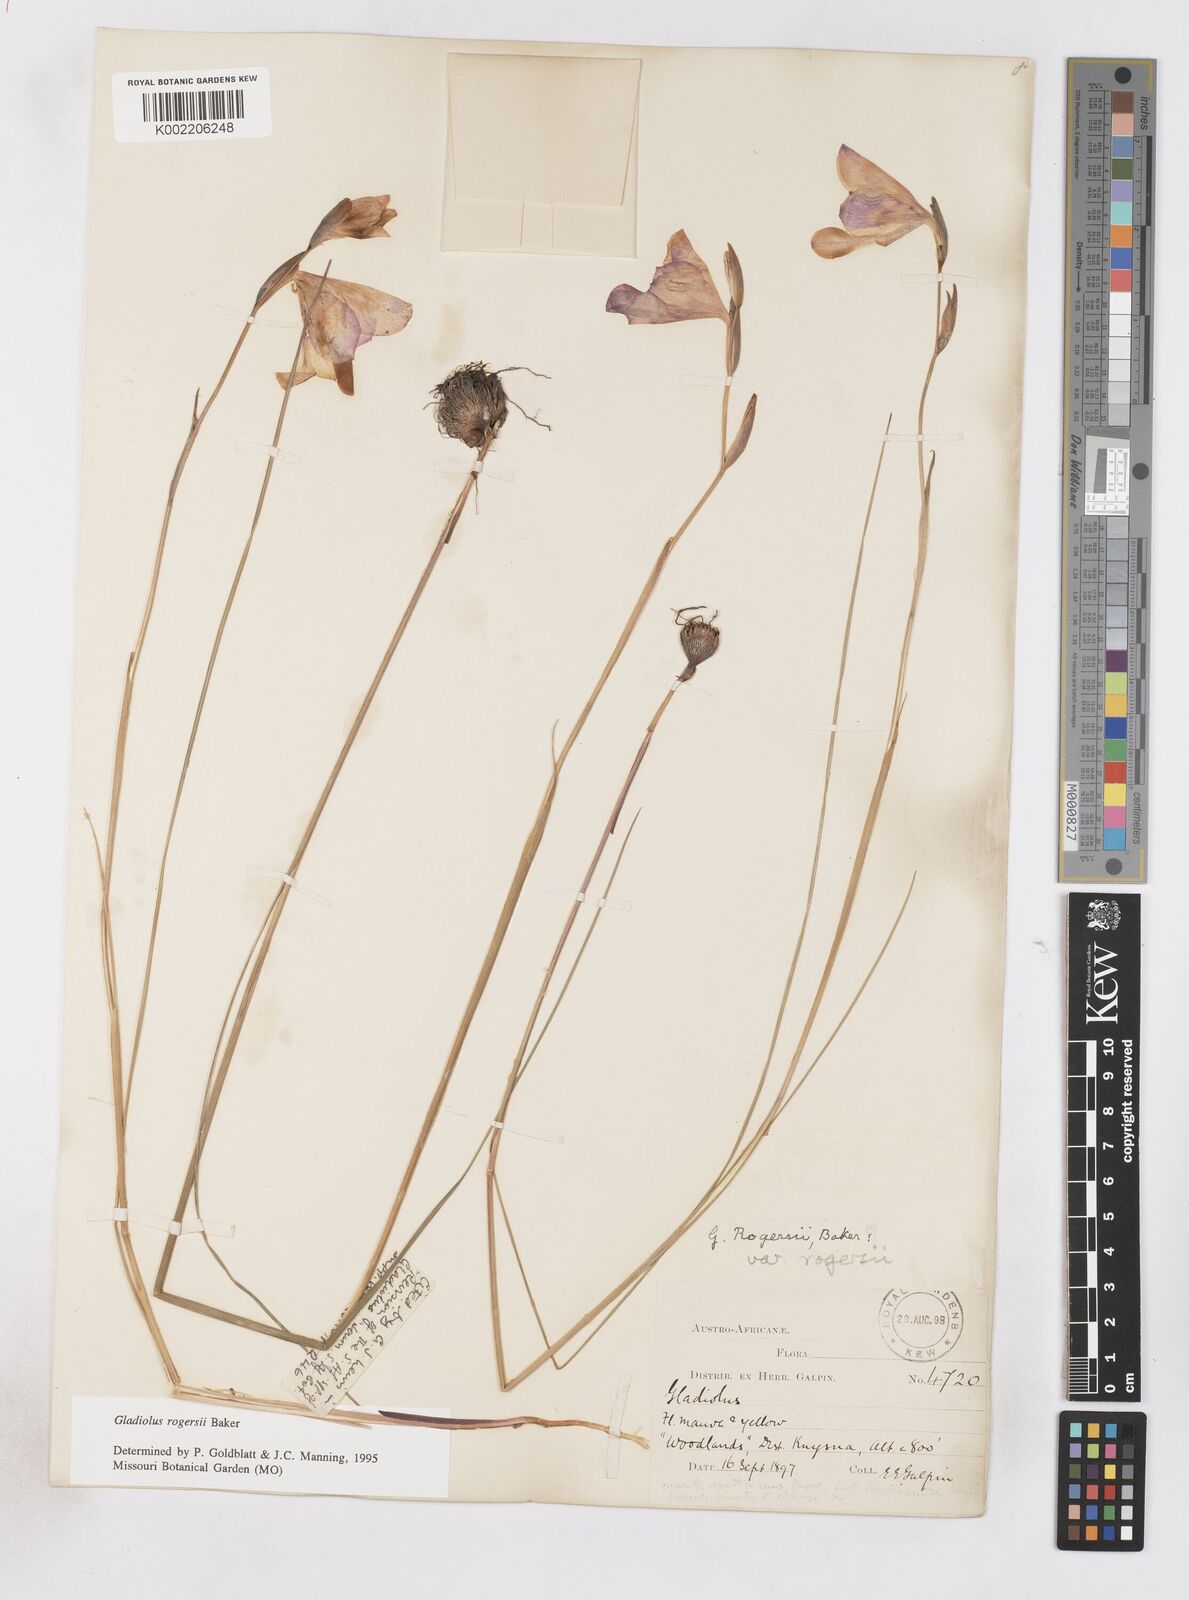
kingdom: Plantae
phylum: Tracheophyta
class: Liliopsida
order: Asparagales
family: Iridaceae
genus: Gladiolus
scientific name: Gladiolus rogersii
